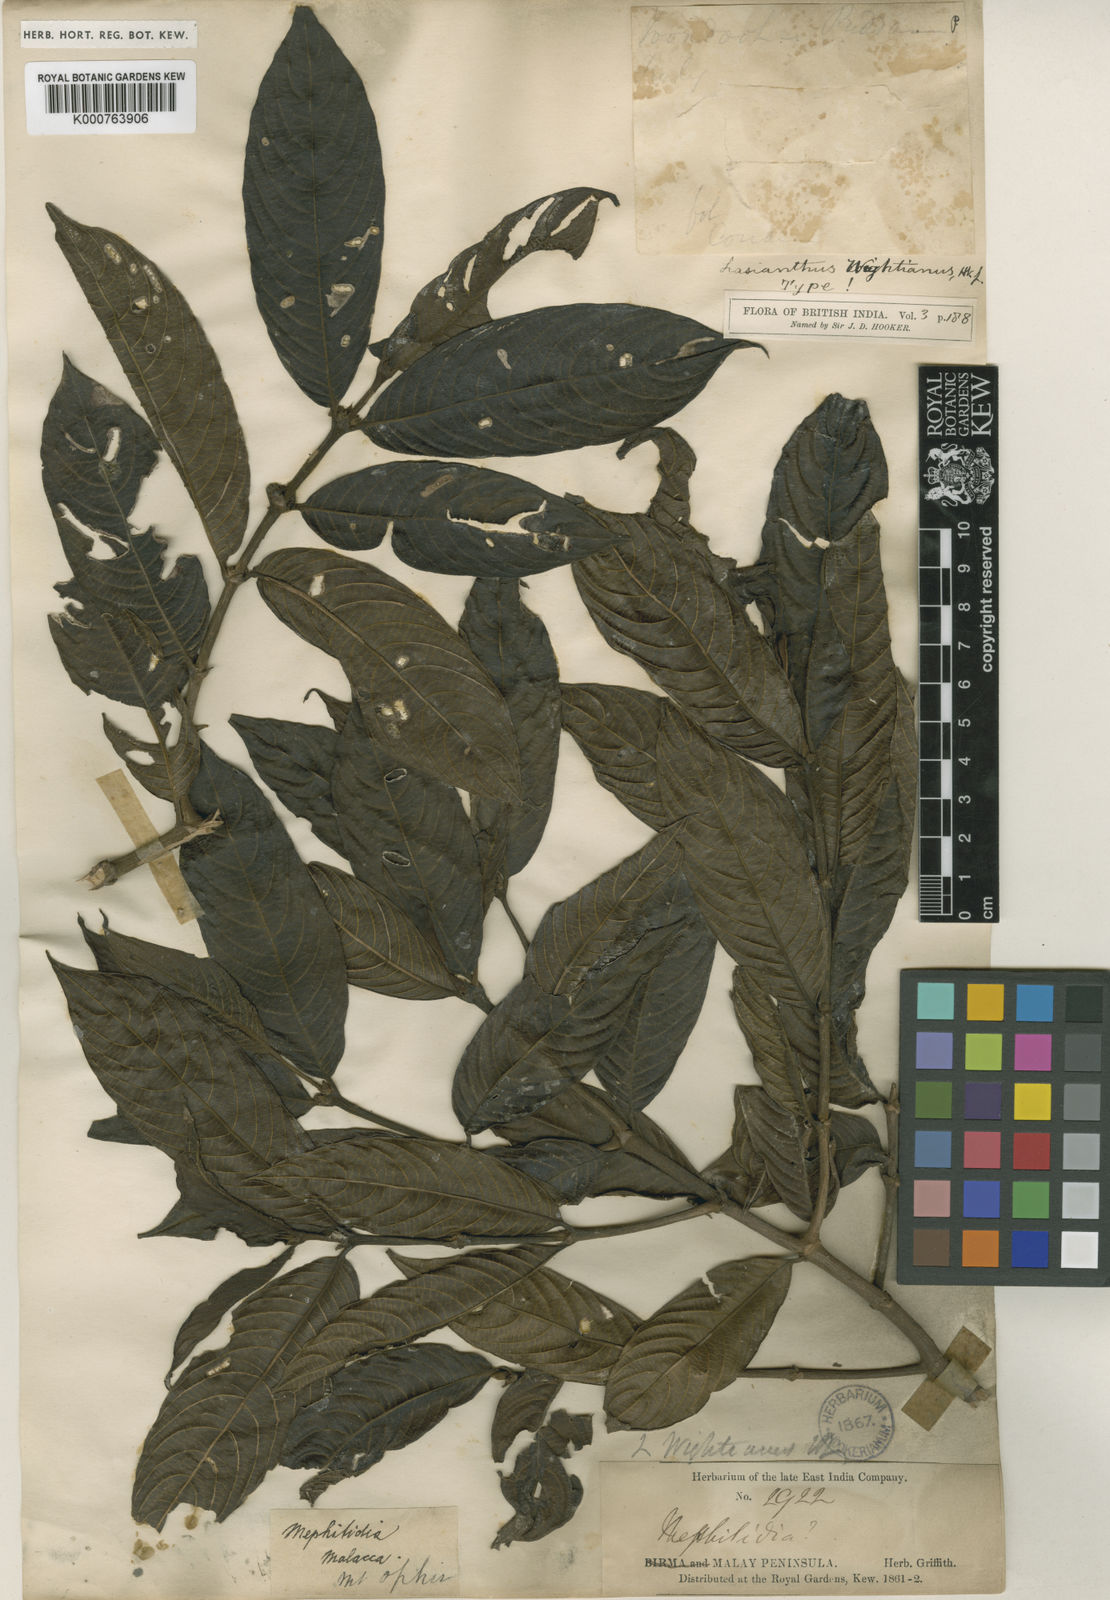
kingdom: Plantae
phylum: Tracheophyta
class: Magnoliopsida
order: Gentianales
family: Rubiaceae
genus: Lasianthus
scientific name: Lasianthus wightianus
